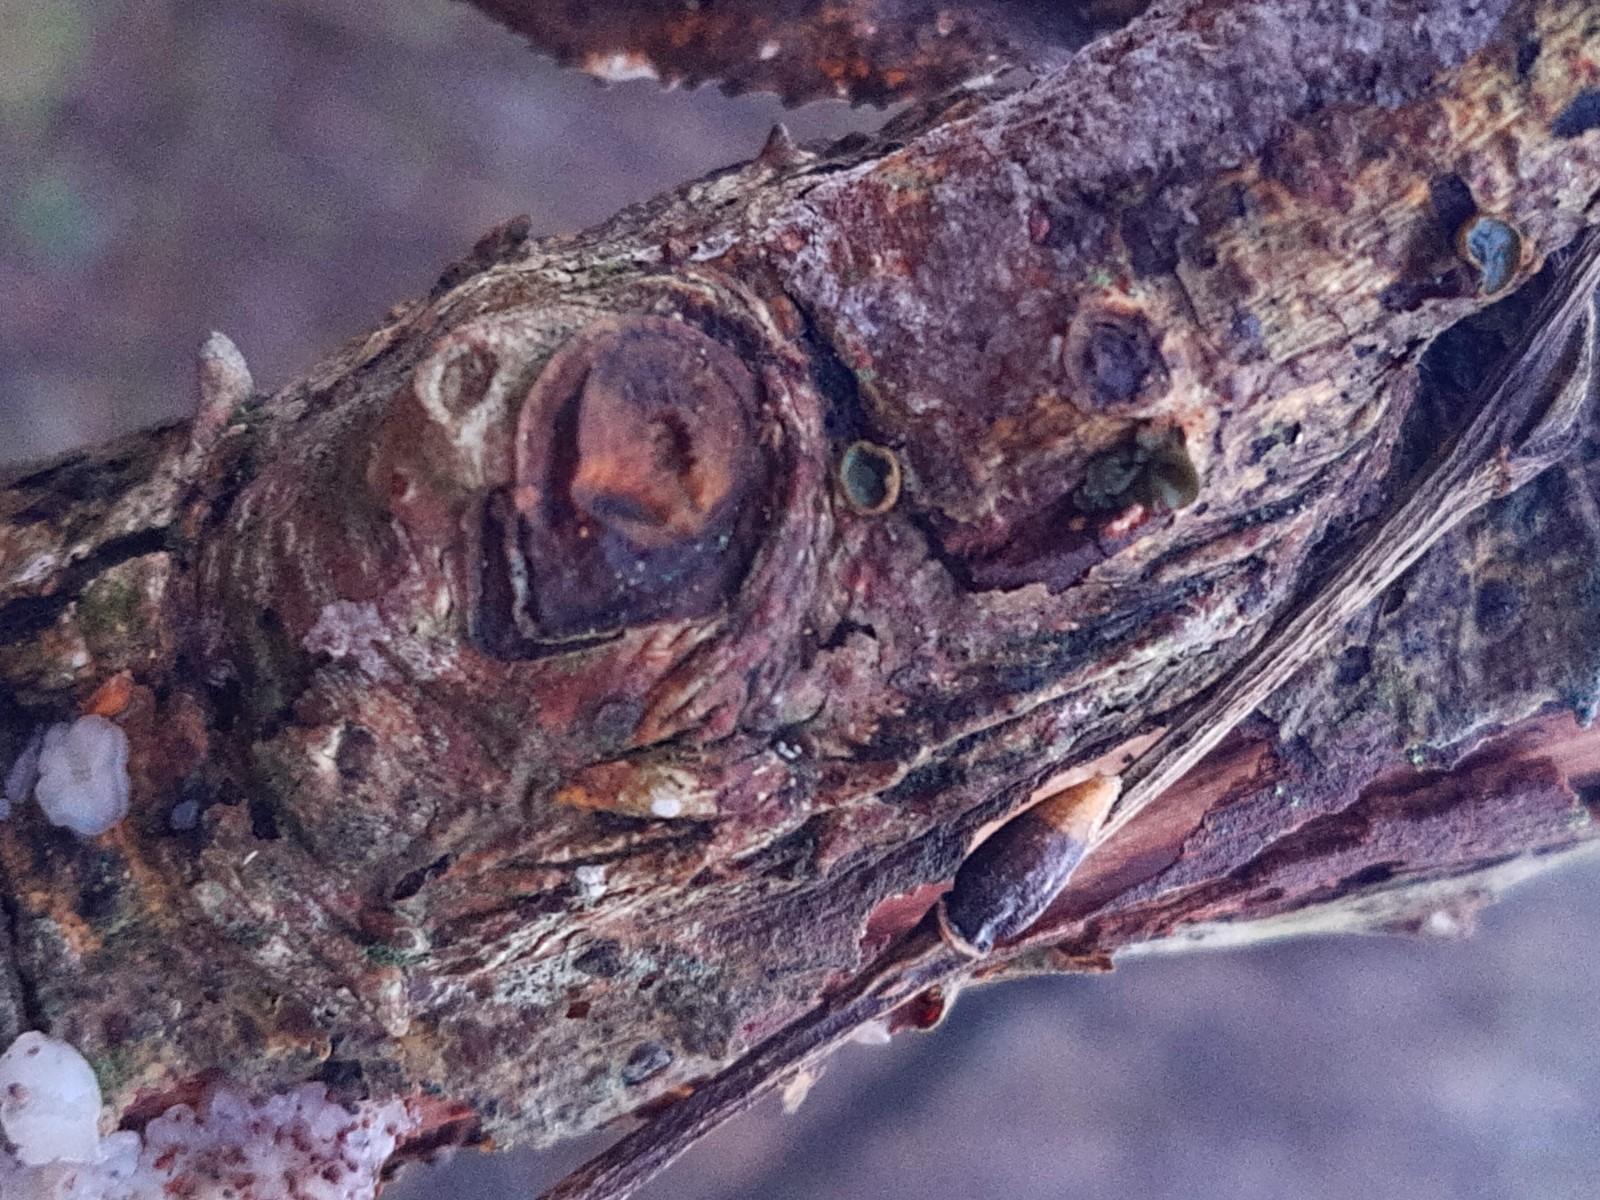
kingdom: Fungi
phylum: Ascomycota
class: Leotiomycetes
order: Helotiales
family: Cordieritidaceae
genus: Ionomidotis
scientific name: Ionomidotis fulvotingens
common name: rødmende tjæreskive
